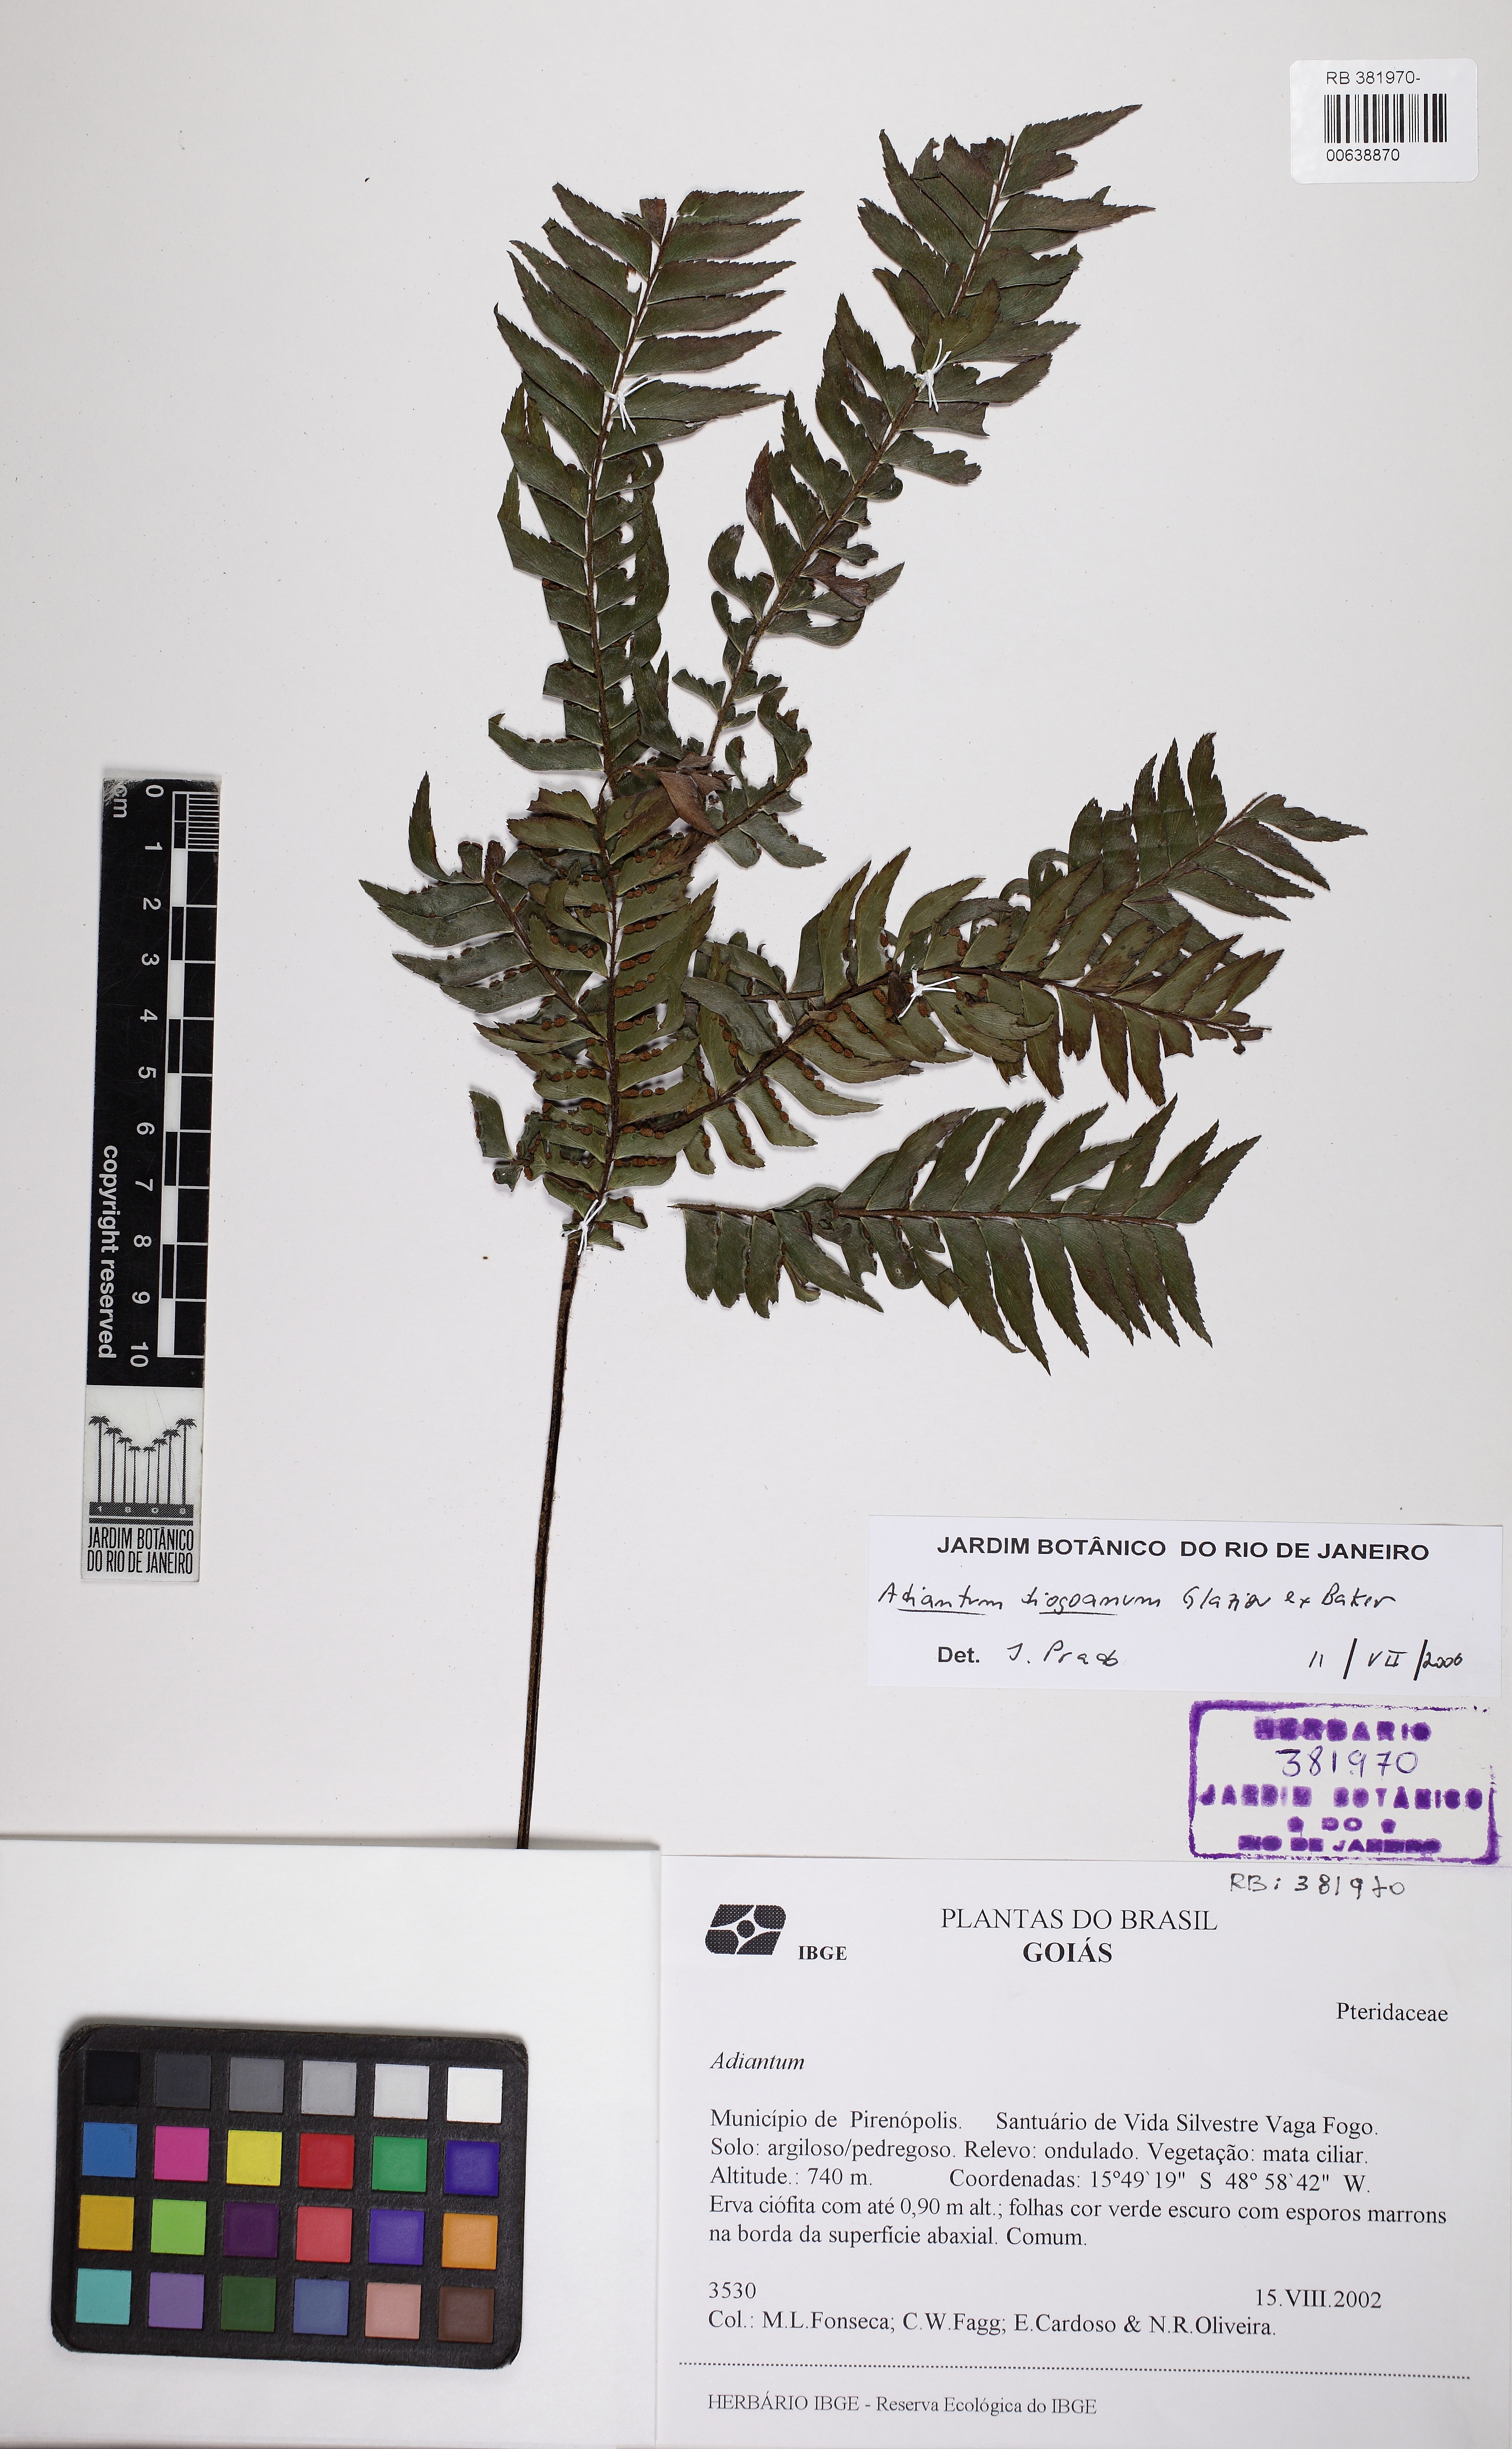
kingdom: Plantae
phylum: Tracheophyta
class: Polypodiopsida
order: Polypodiales
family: Pteridaceae
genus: Adiantum
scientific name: Adiantum tetraphyllum
